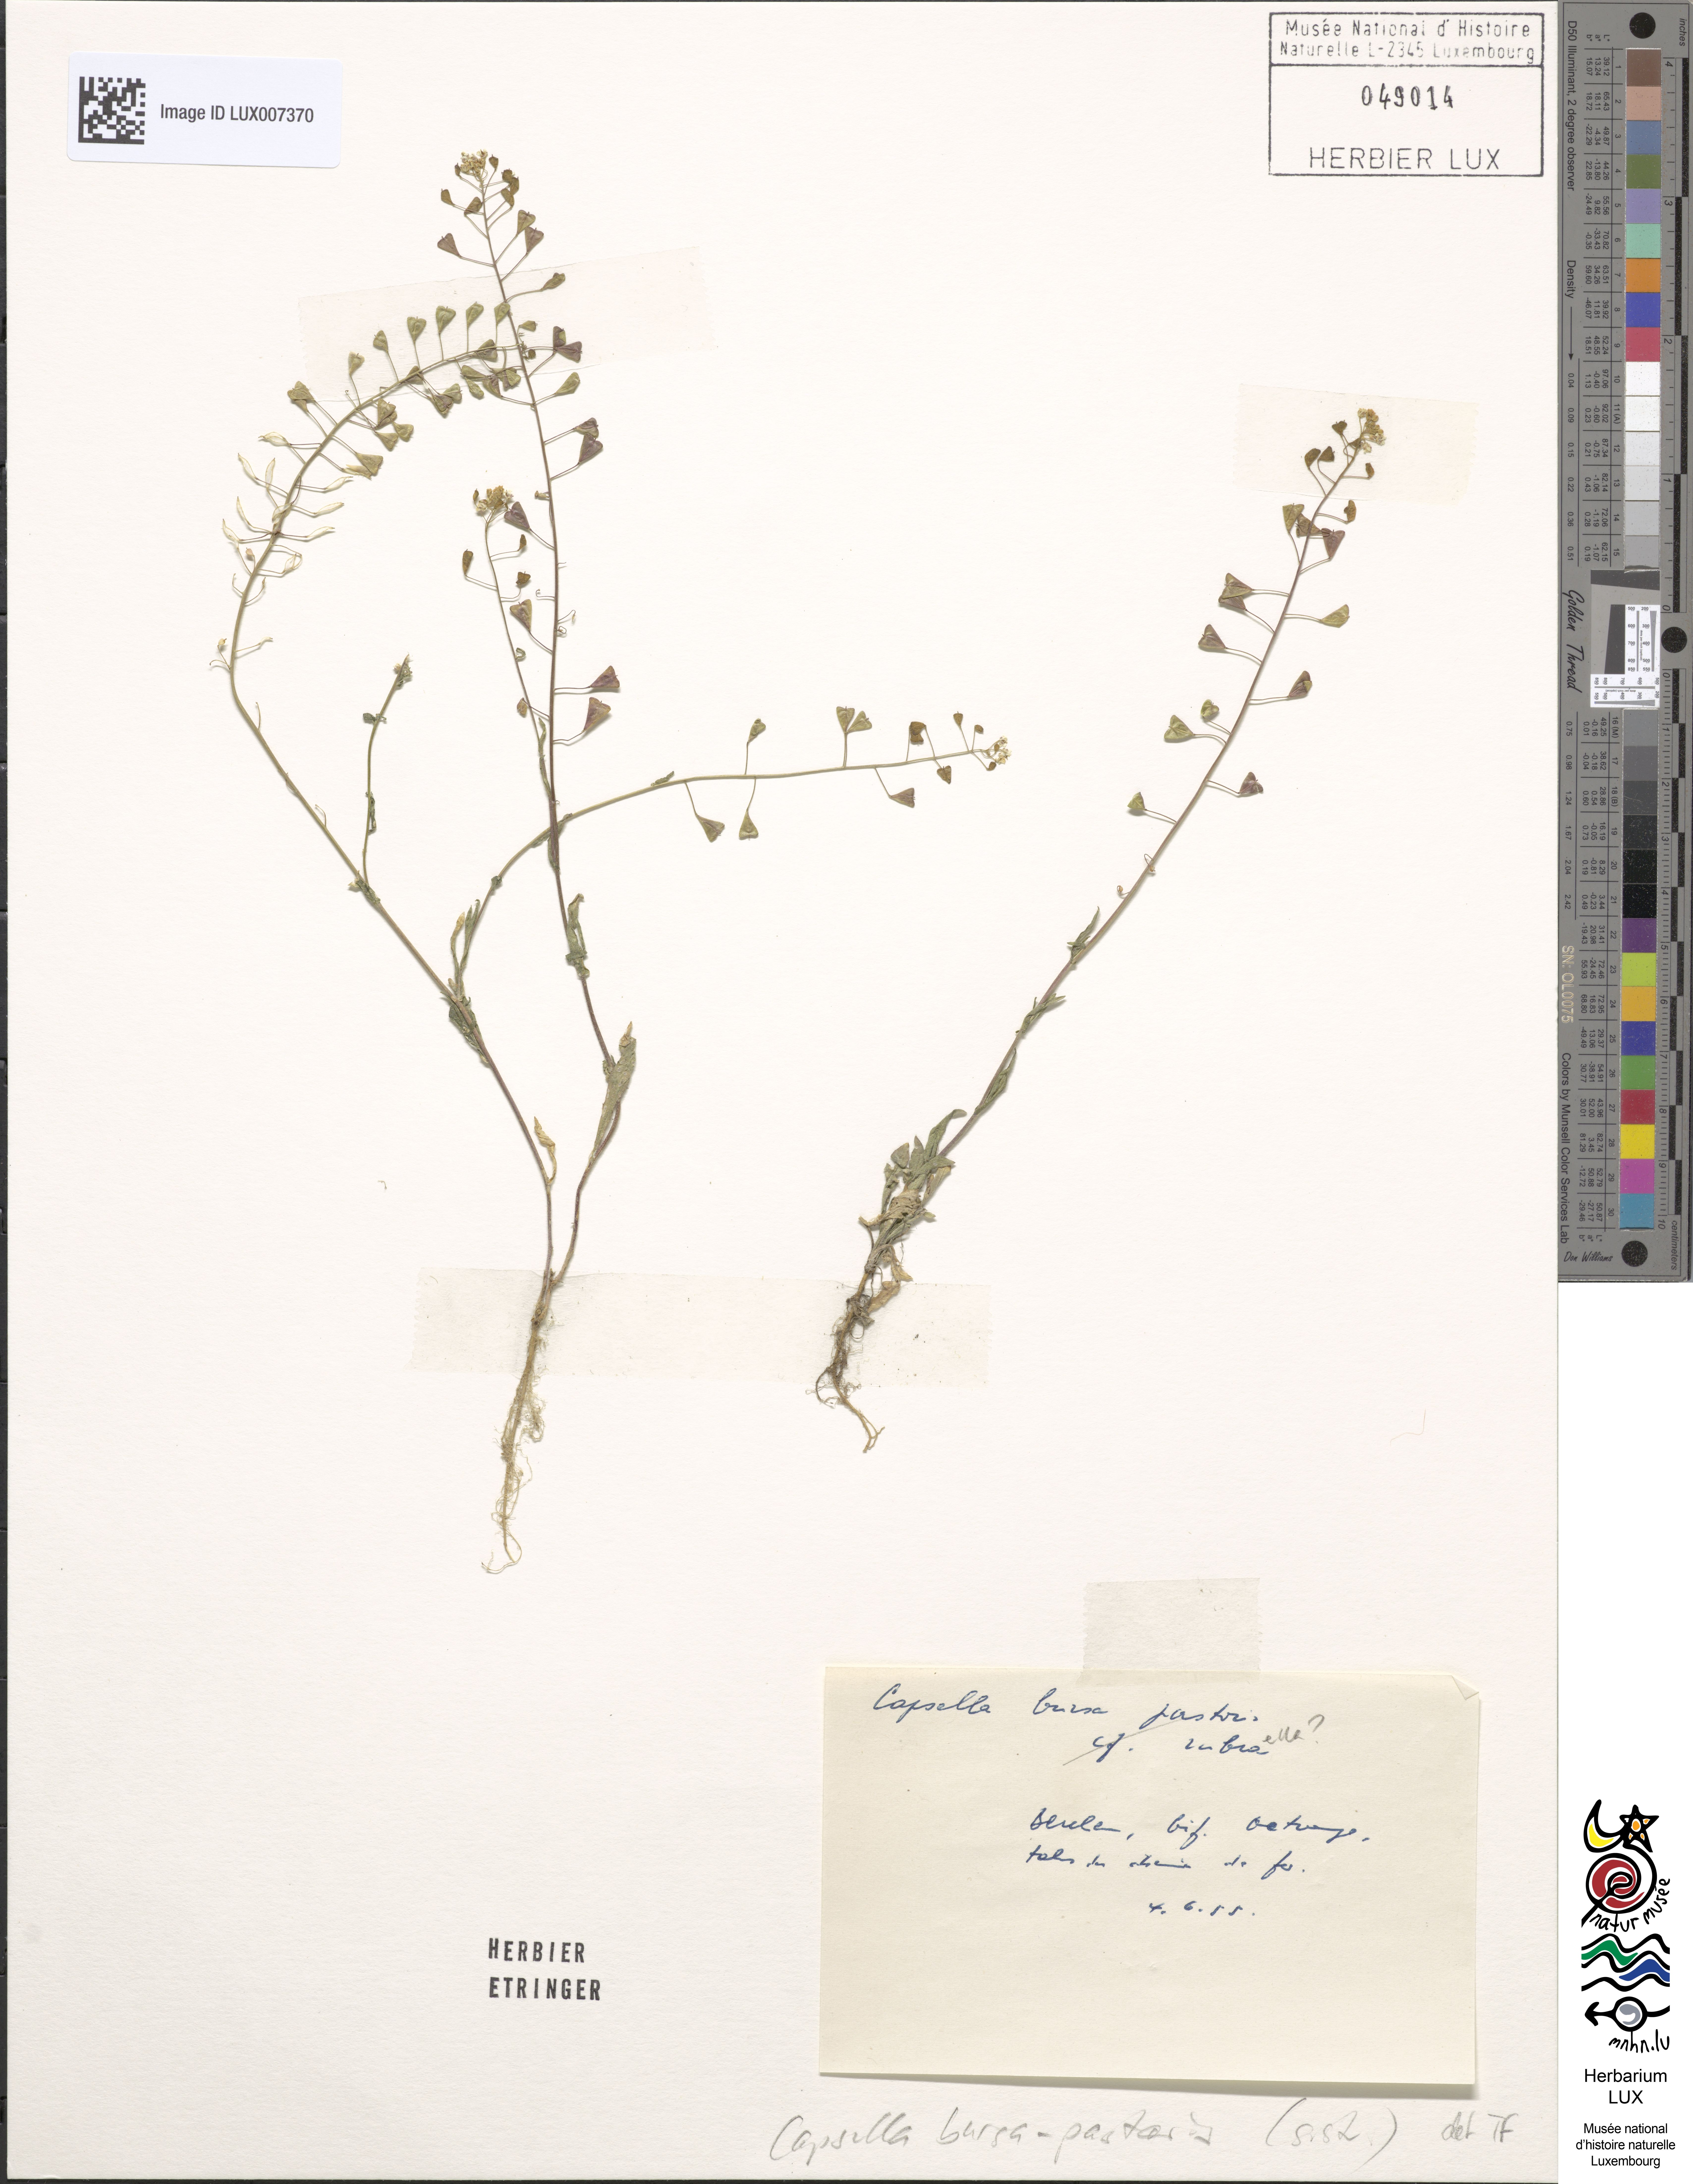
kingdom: Plantae
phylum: Tracheophyta
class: Magnoliopsida
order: Brassicales
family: Brassicaceae
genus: Capsella
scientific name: Capsella bursa-pastoris
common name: Shepherd's purse
